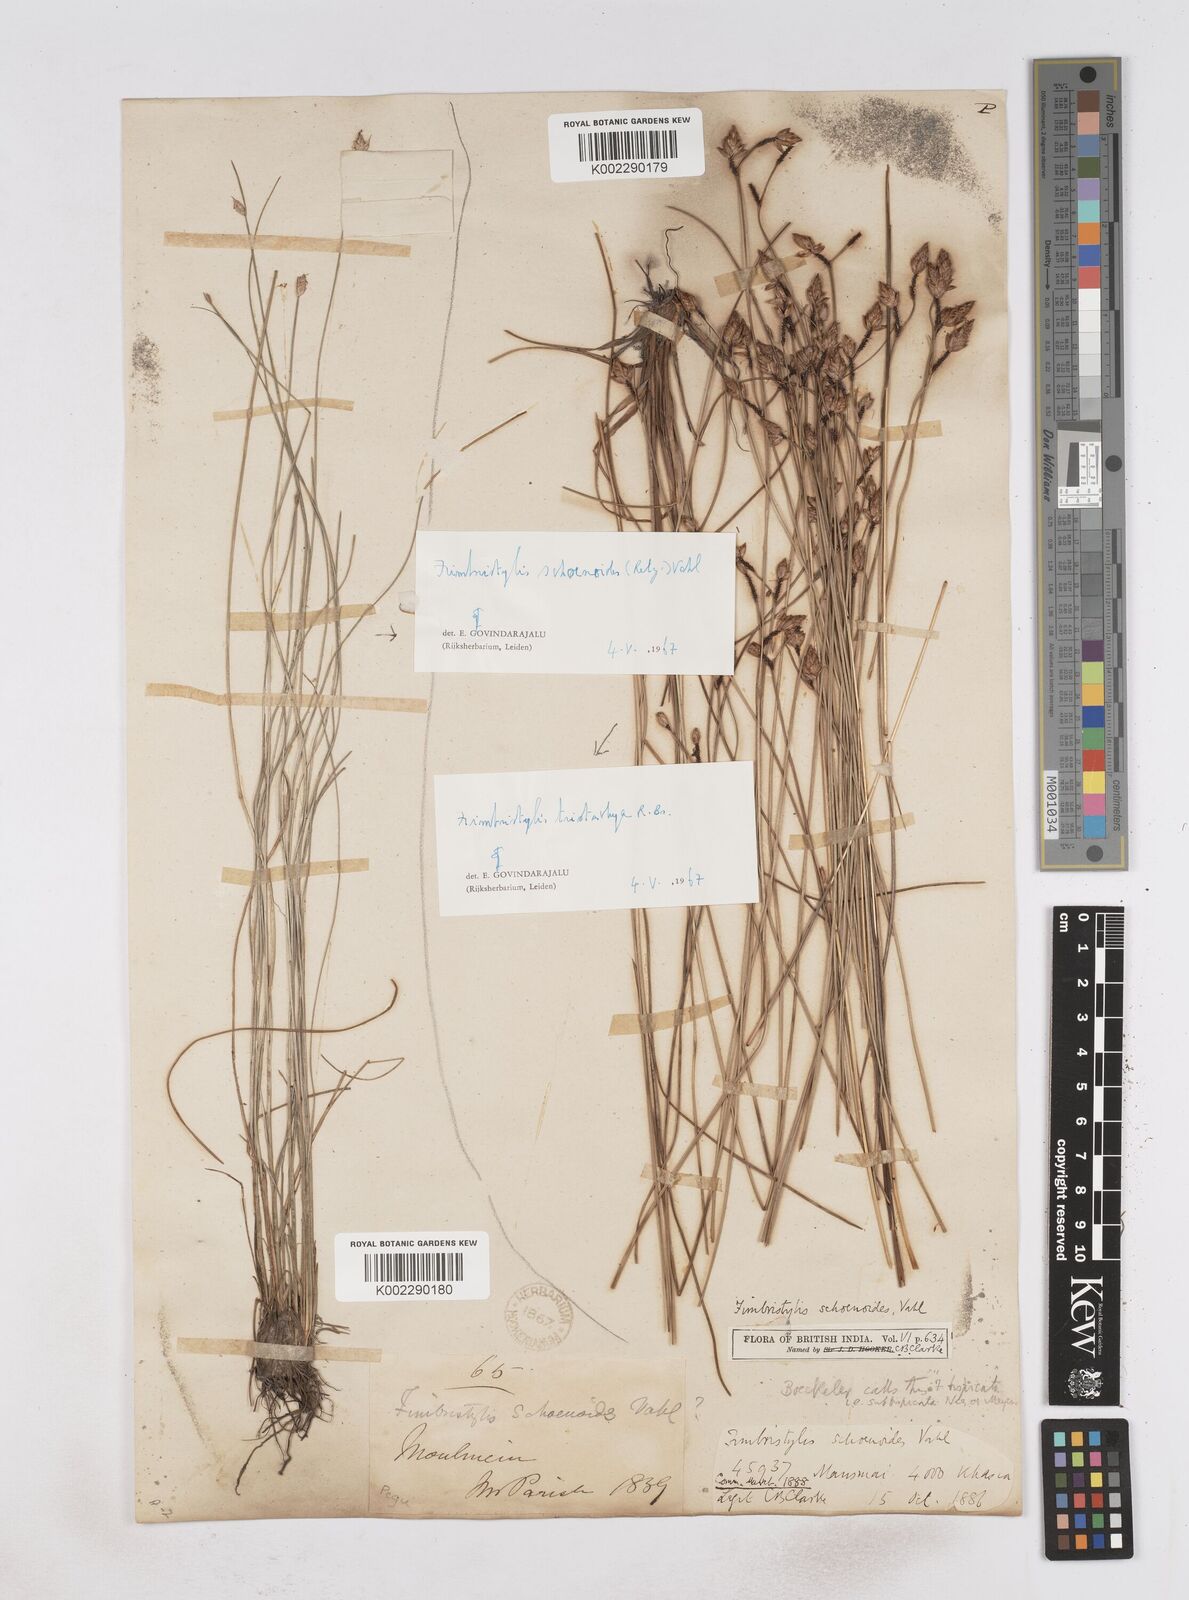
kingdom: Plantae
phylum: Tracheophyta
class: Liliopsida
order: Poales
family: Cyperaceae
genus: Fimbristylis
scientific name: Fimbristylis tristachya
